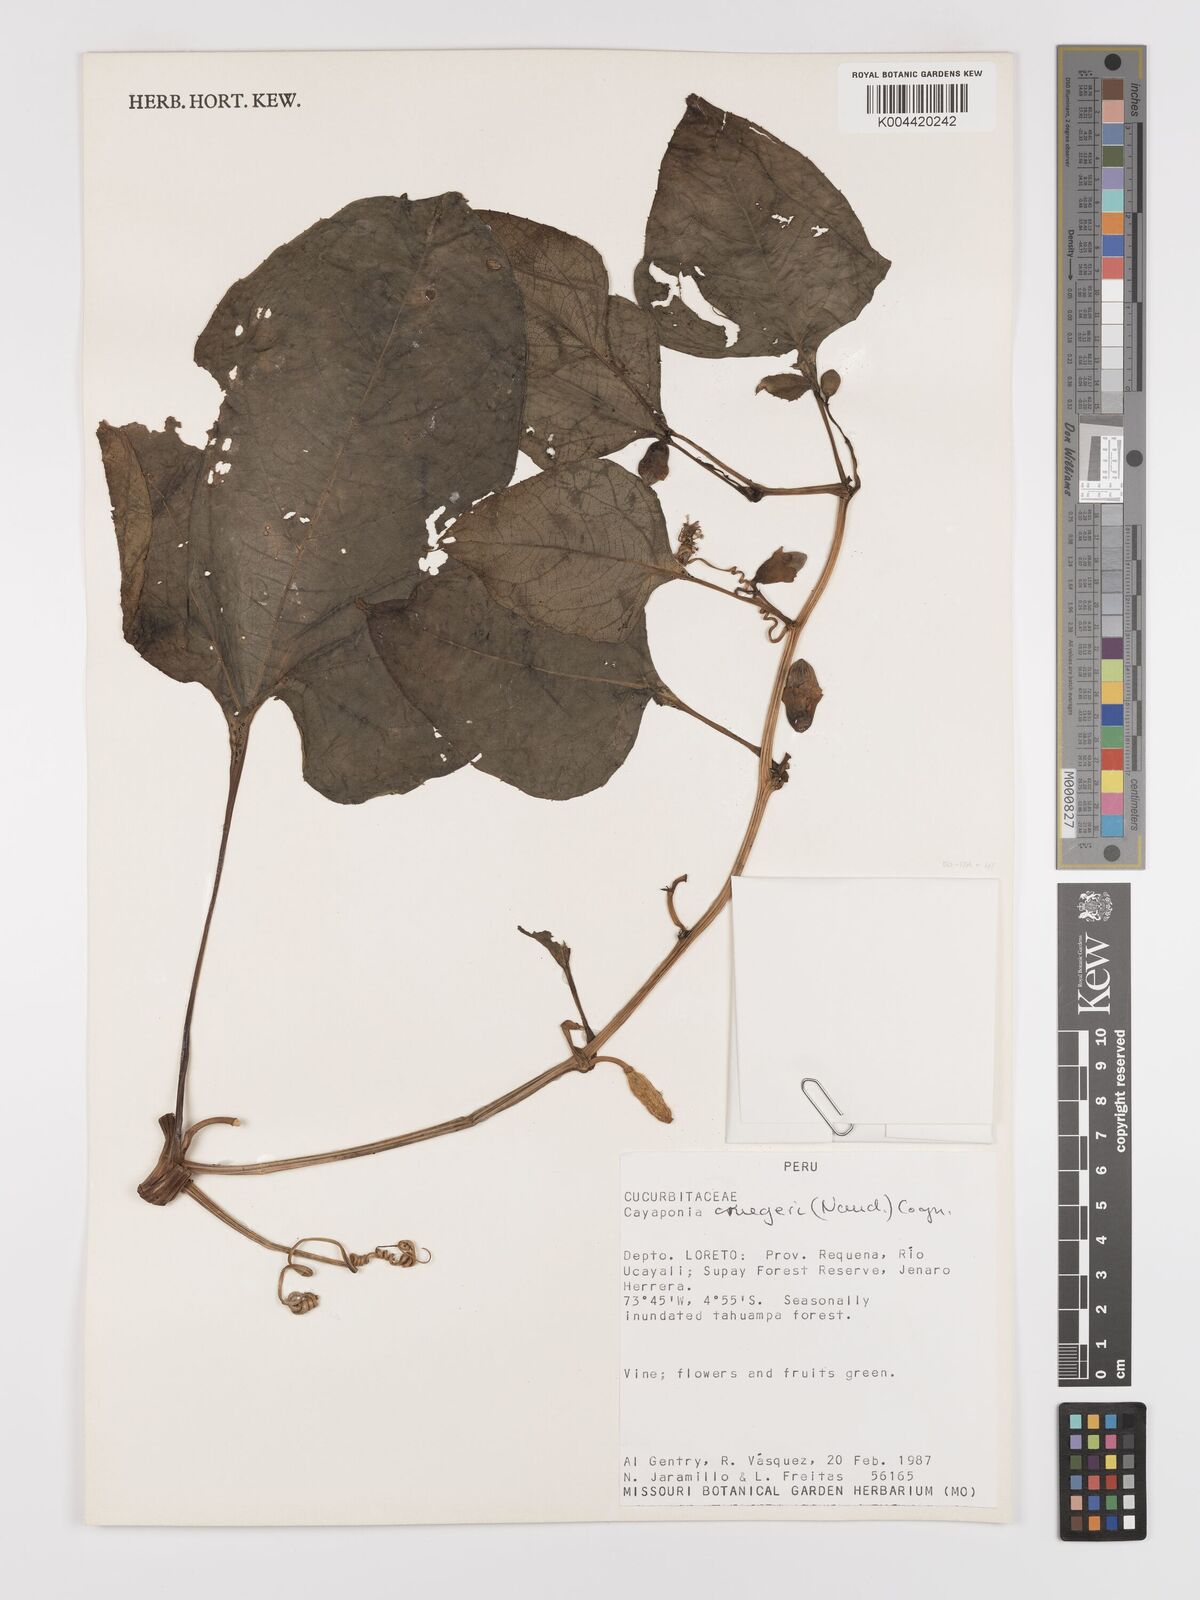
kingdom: Plantae
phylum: Tracheophyta
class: Magnoliopsida
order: Cucurbitales
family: Cucurbitaceae
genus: Cayaponia
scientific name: Cayaponia cruegeri
